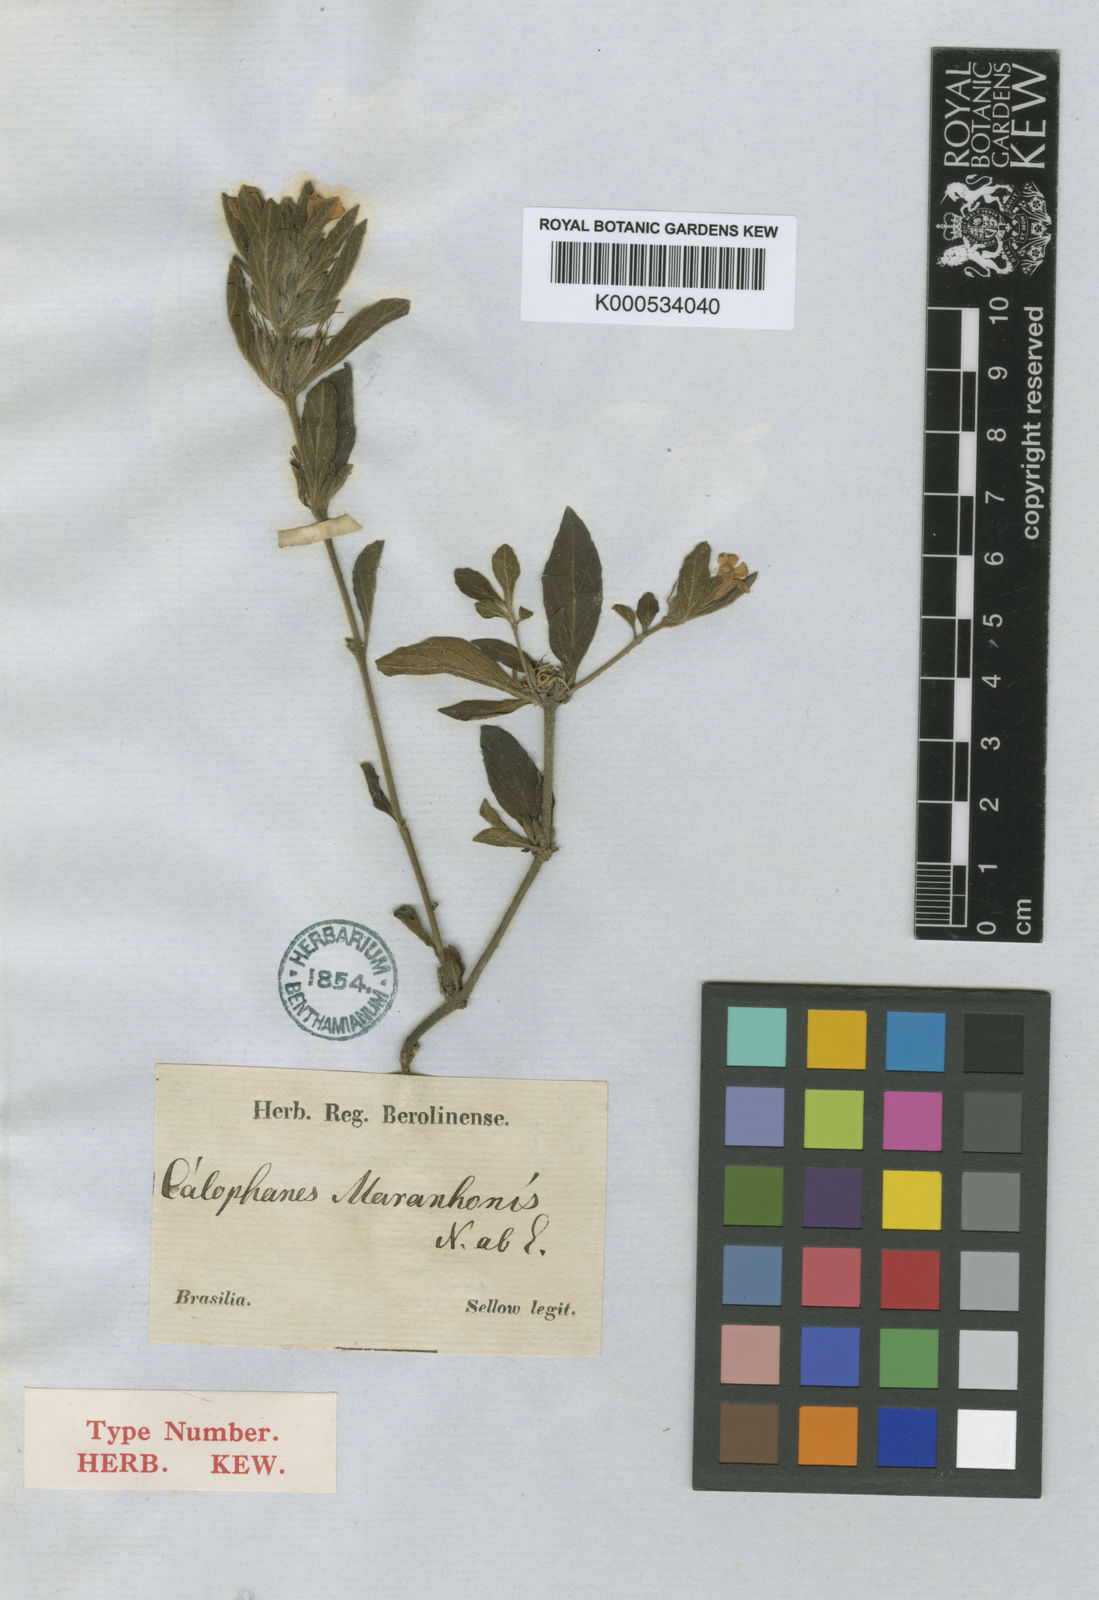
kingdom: Plantae
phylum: Tracheophyta
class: Magnoliopsida
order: Lamiales
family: Acanthaceae
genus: Dyschoriste
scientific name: Dyschoriste maranhonis
